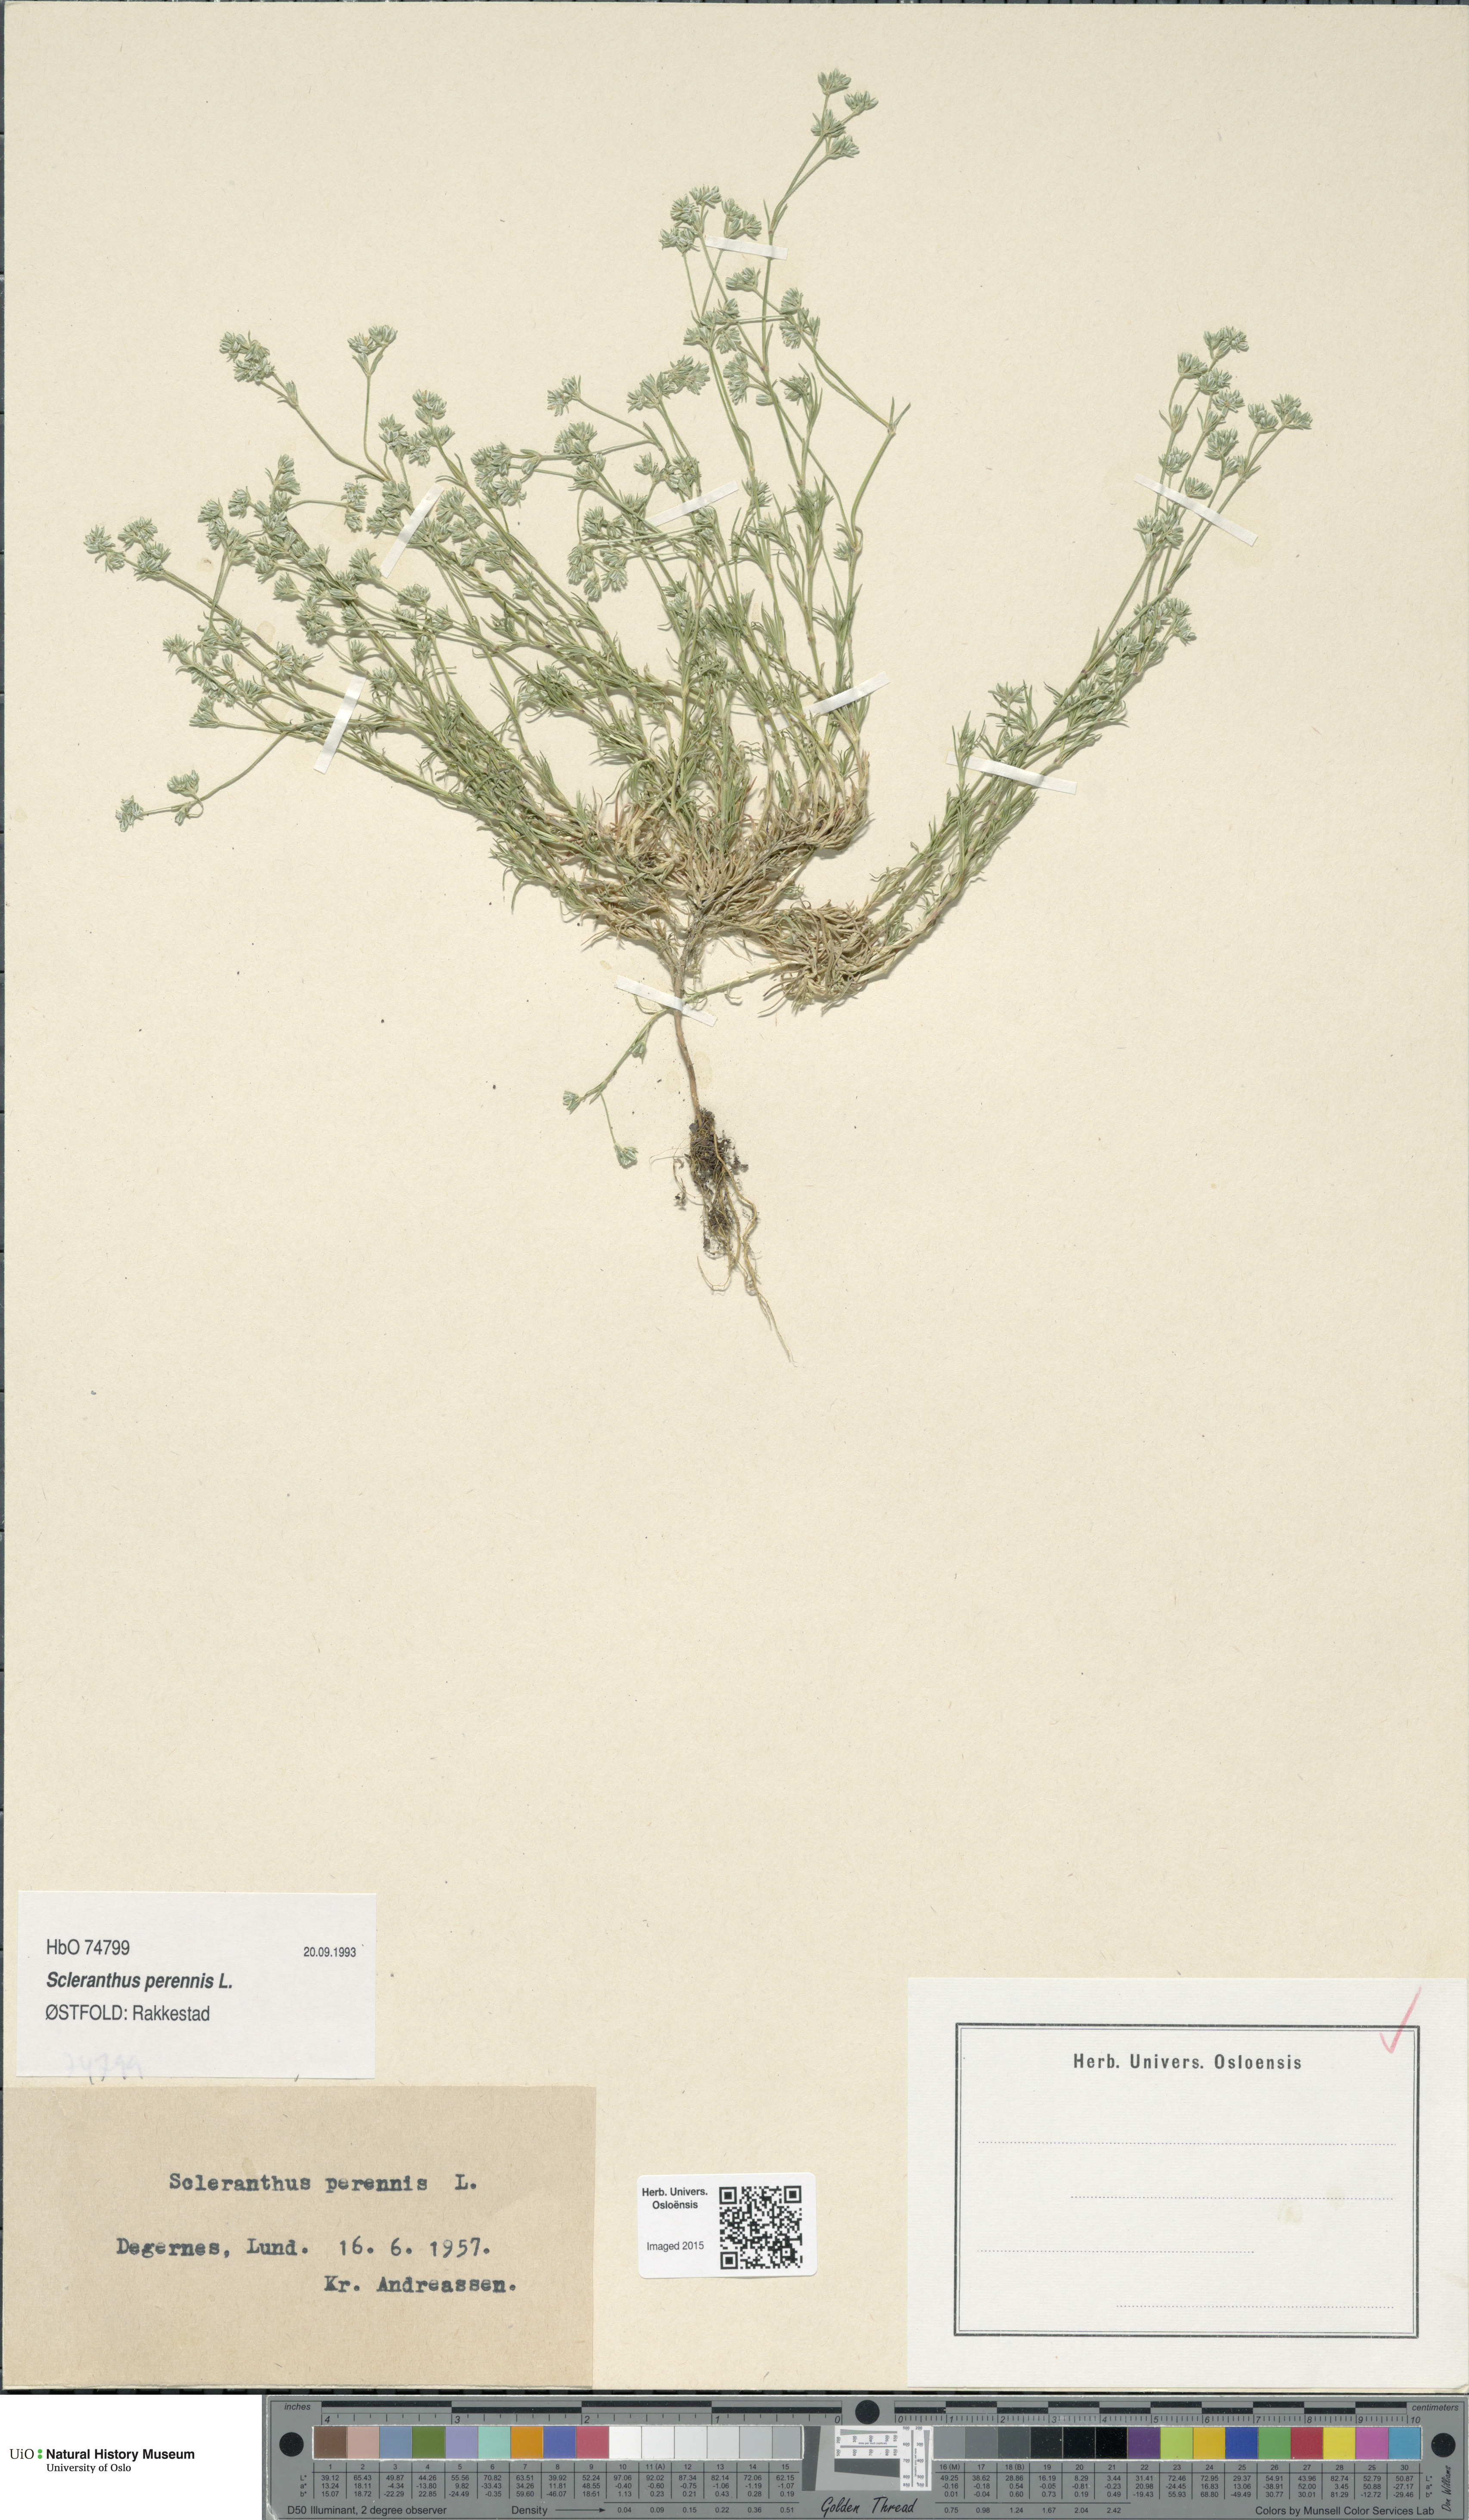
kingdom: Plantae
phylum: Tracheophyta
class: Magnoliopsida
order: Caryophyllales
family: Caryophyllaceae
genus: Scleranthus
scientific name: Scleranthus perennis
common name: Perennial knawel
